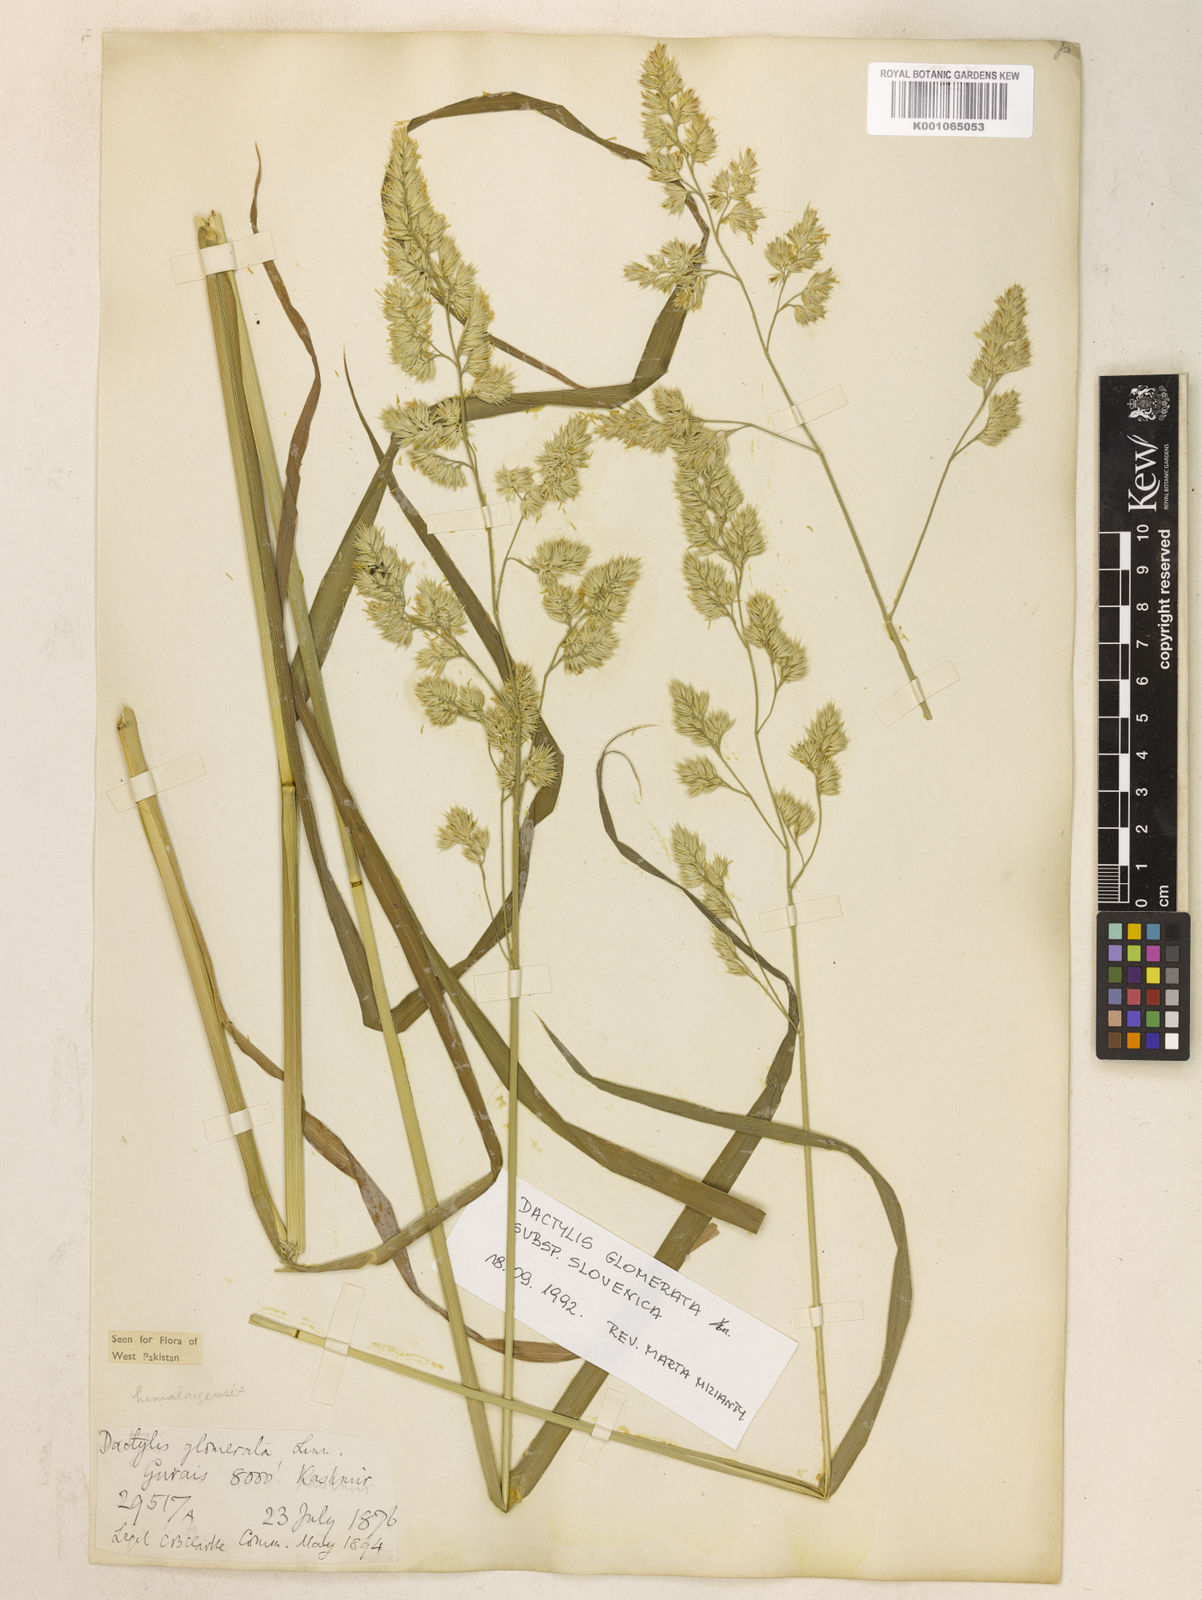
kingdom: Plantae
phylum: Tracheophyta
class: Liliopsida
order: Poales
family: Poaceae
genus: Dactylis
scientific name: Dactylis glomerata
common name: Orchardgrass
